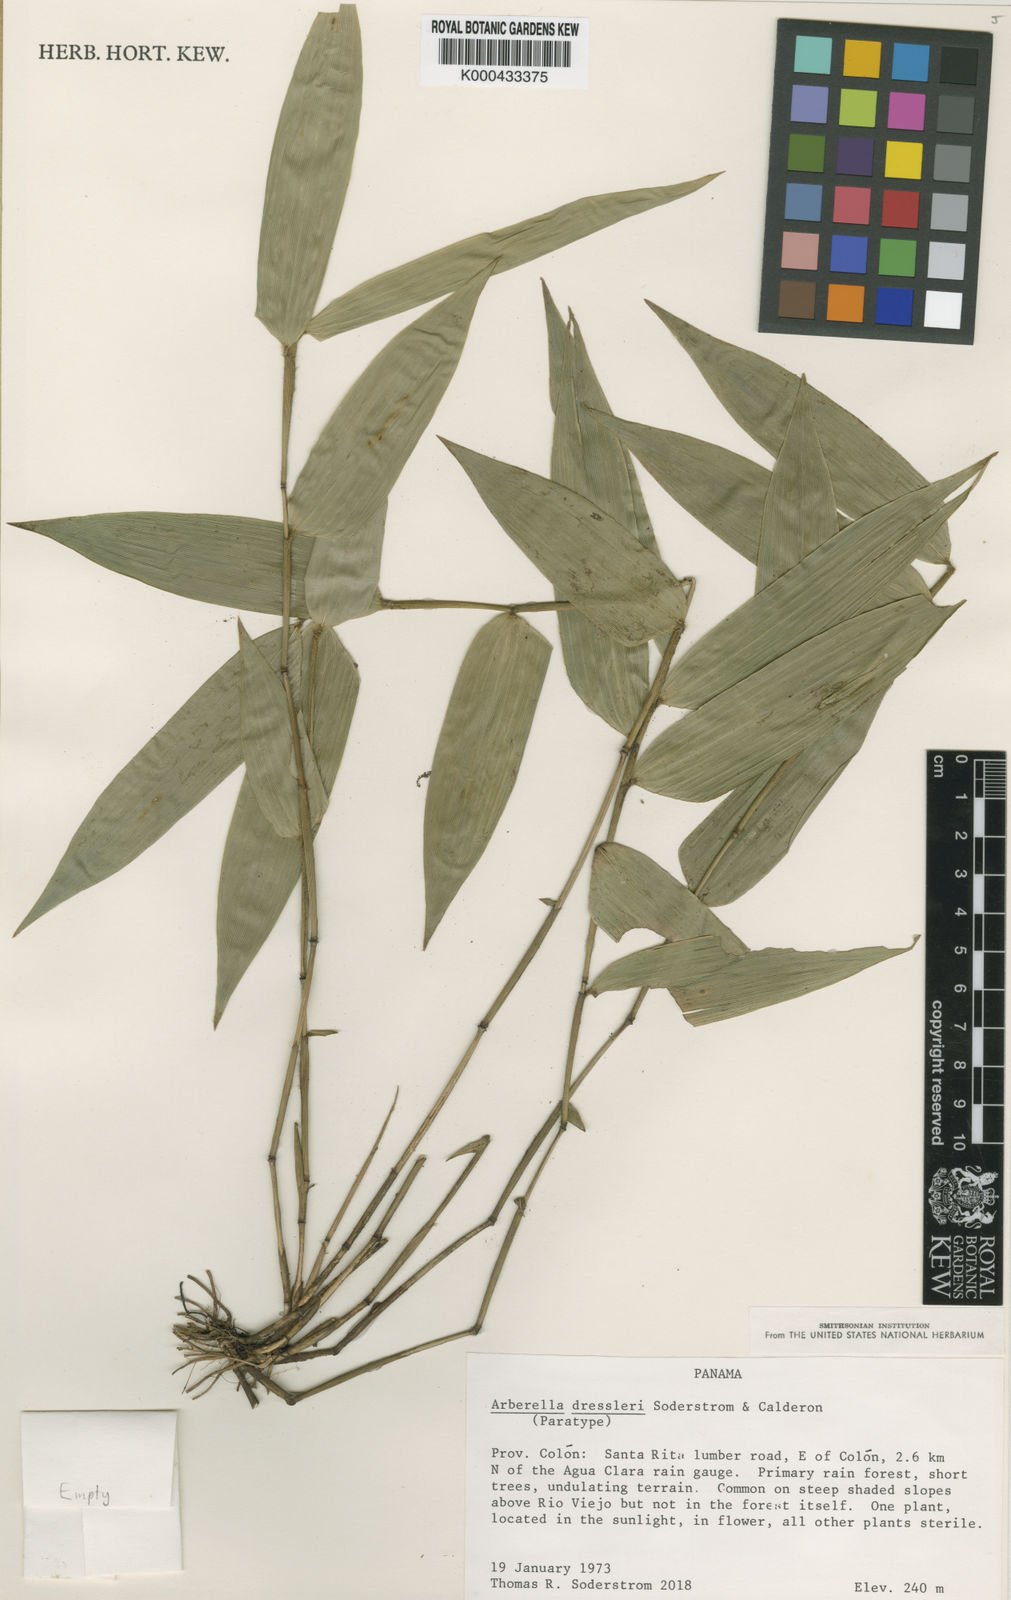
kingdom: Plantae
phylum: Tracheophyta
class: Liliopsida
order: Poales
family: Poaceae
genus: Arberella
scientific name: Arberella dressleri
